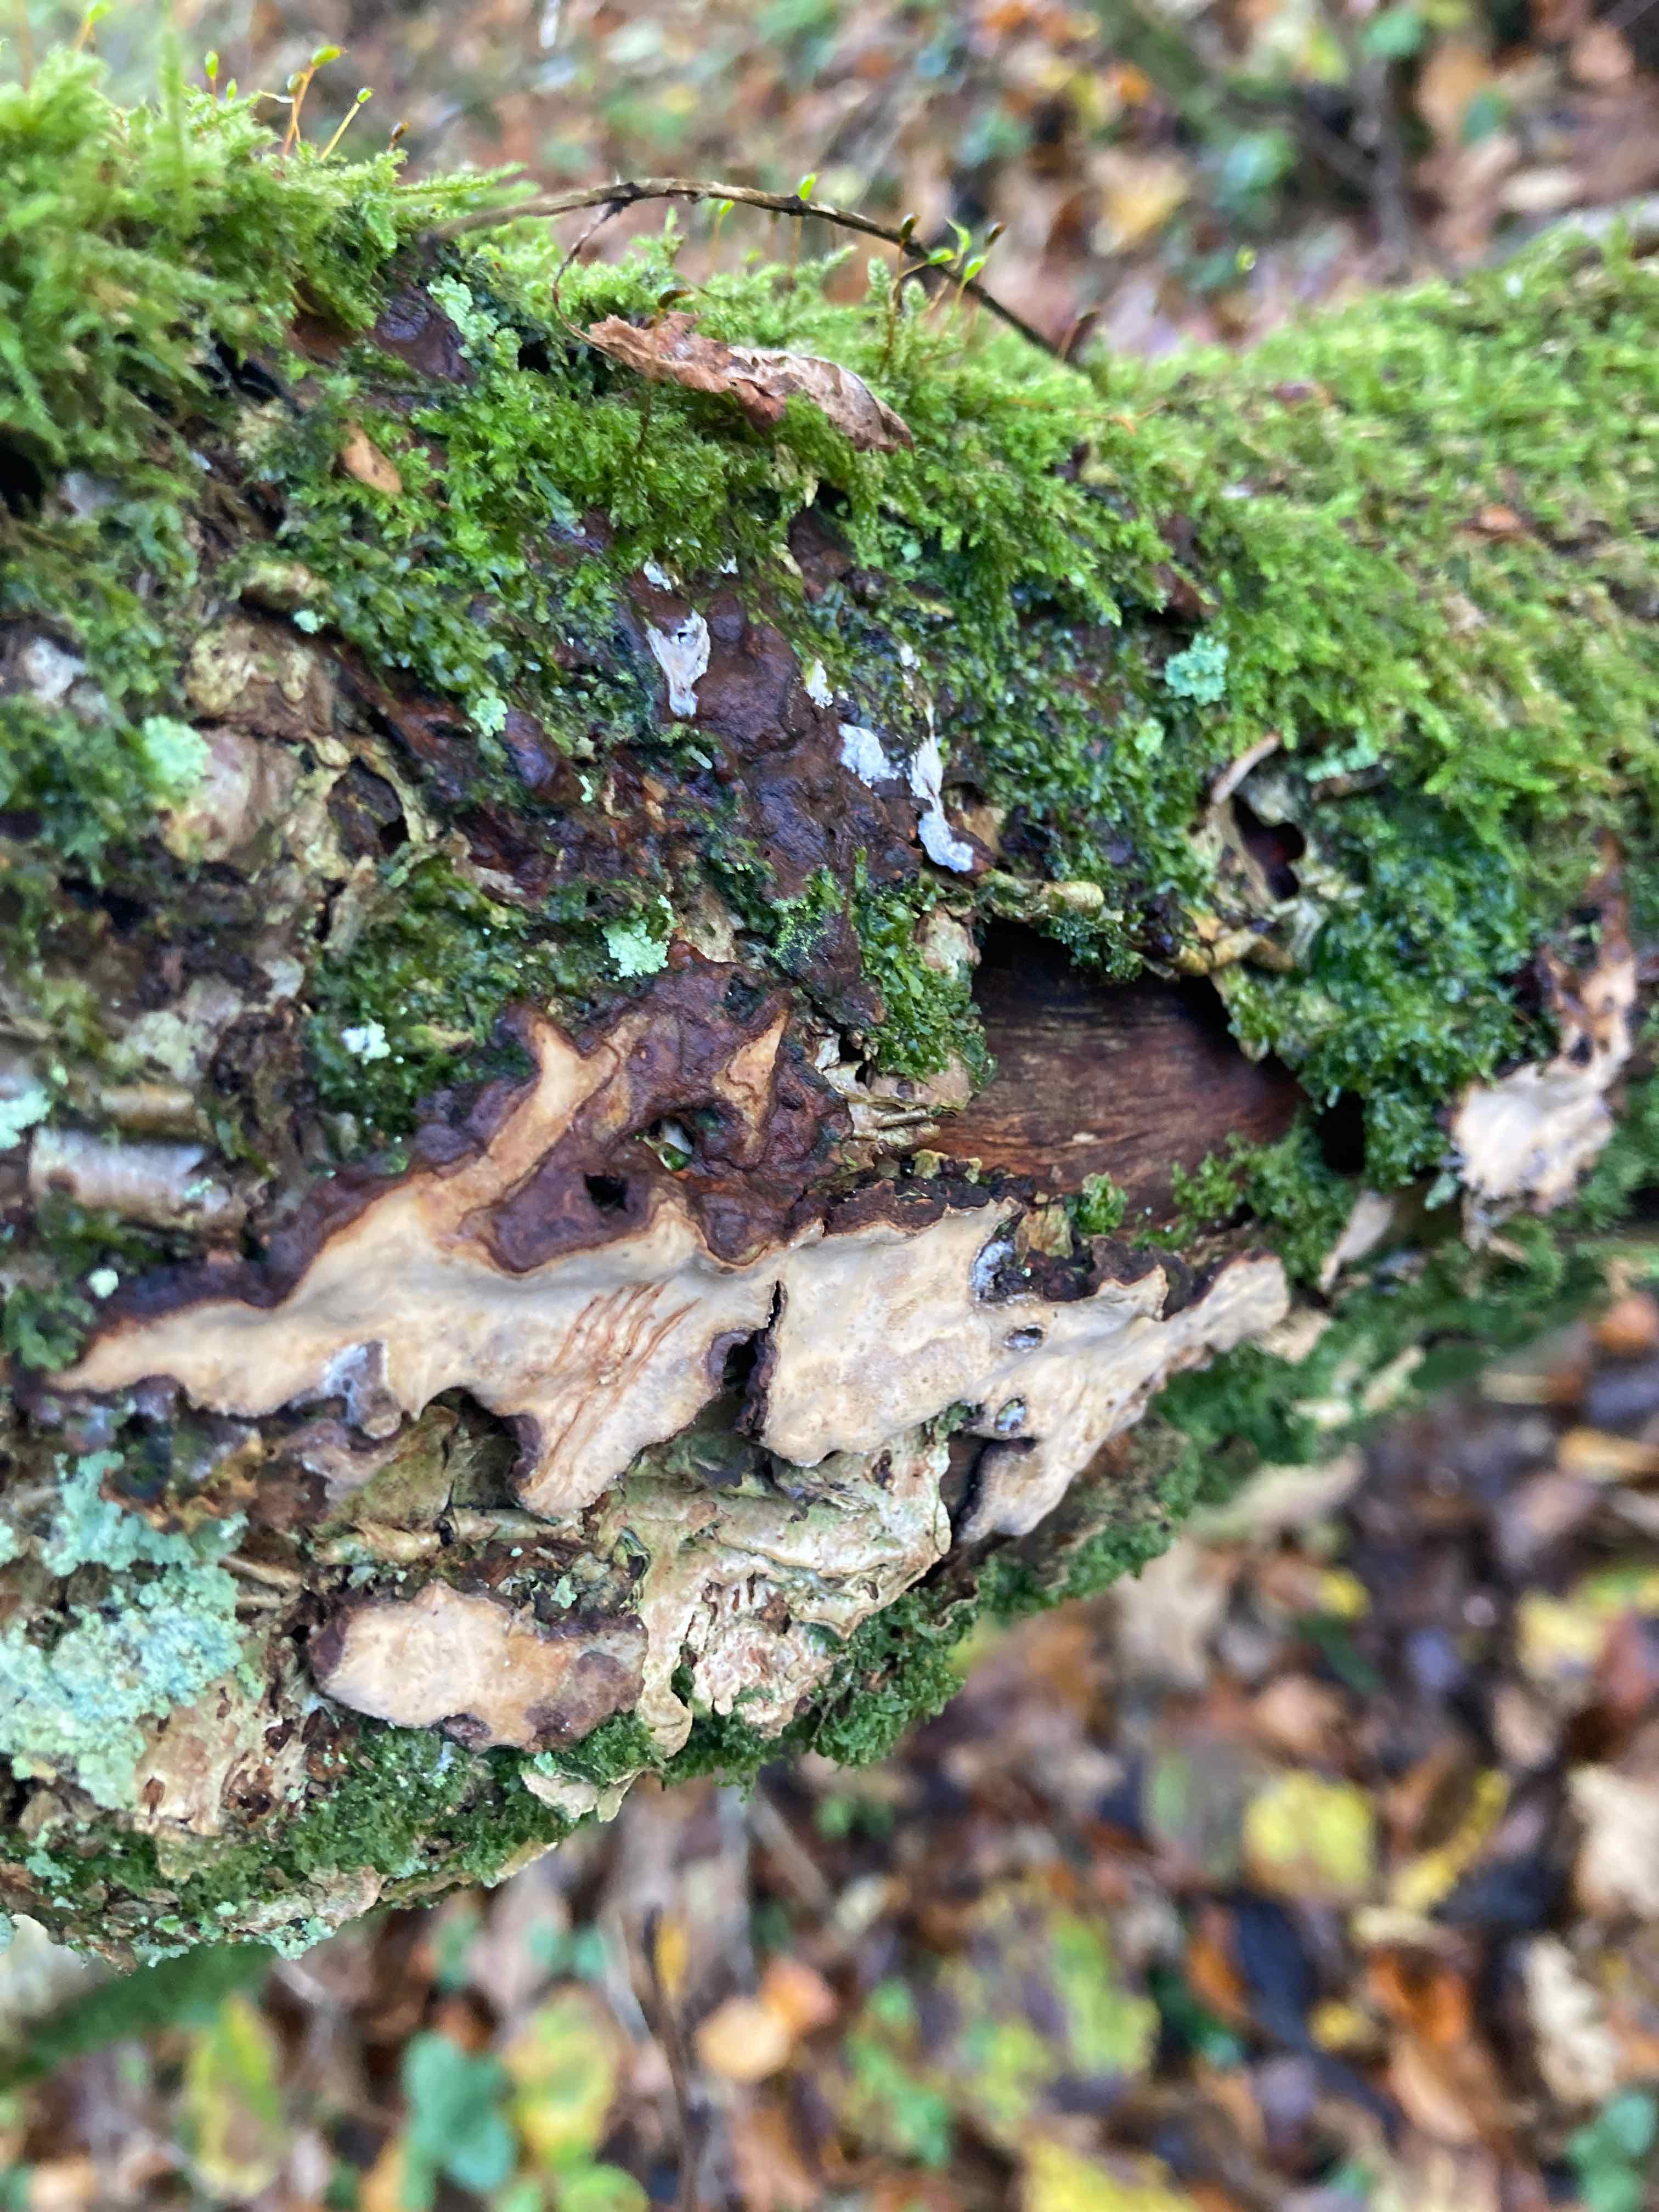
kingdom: Fungi
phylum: Basidiomycota
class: Agaricomycetes
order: Russulales
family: Stereaceae
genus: Stereum
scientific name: Stereum rugosum
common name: rynket lædersvamp
